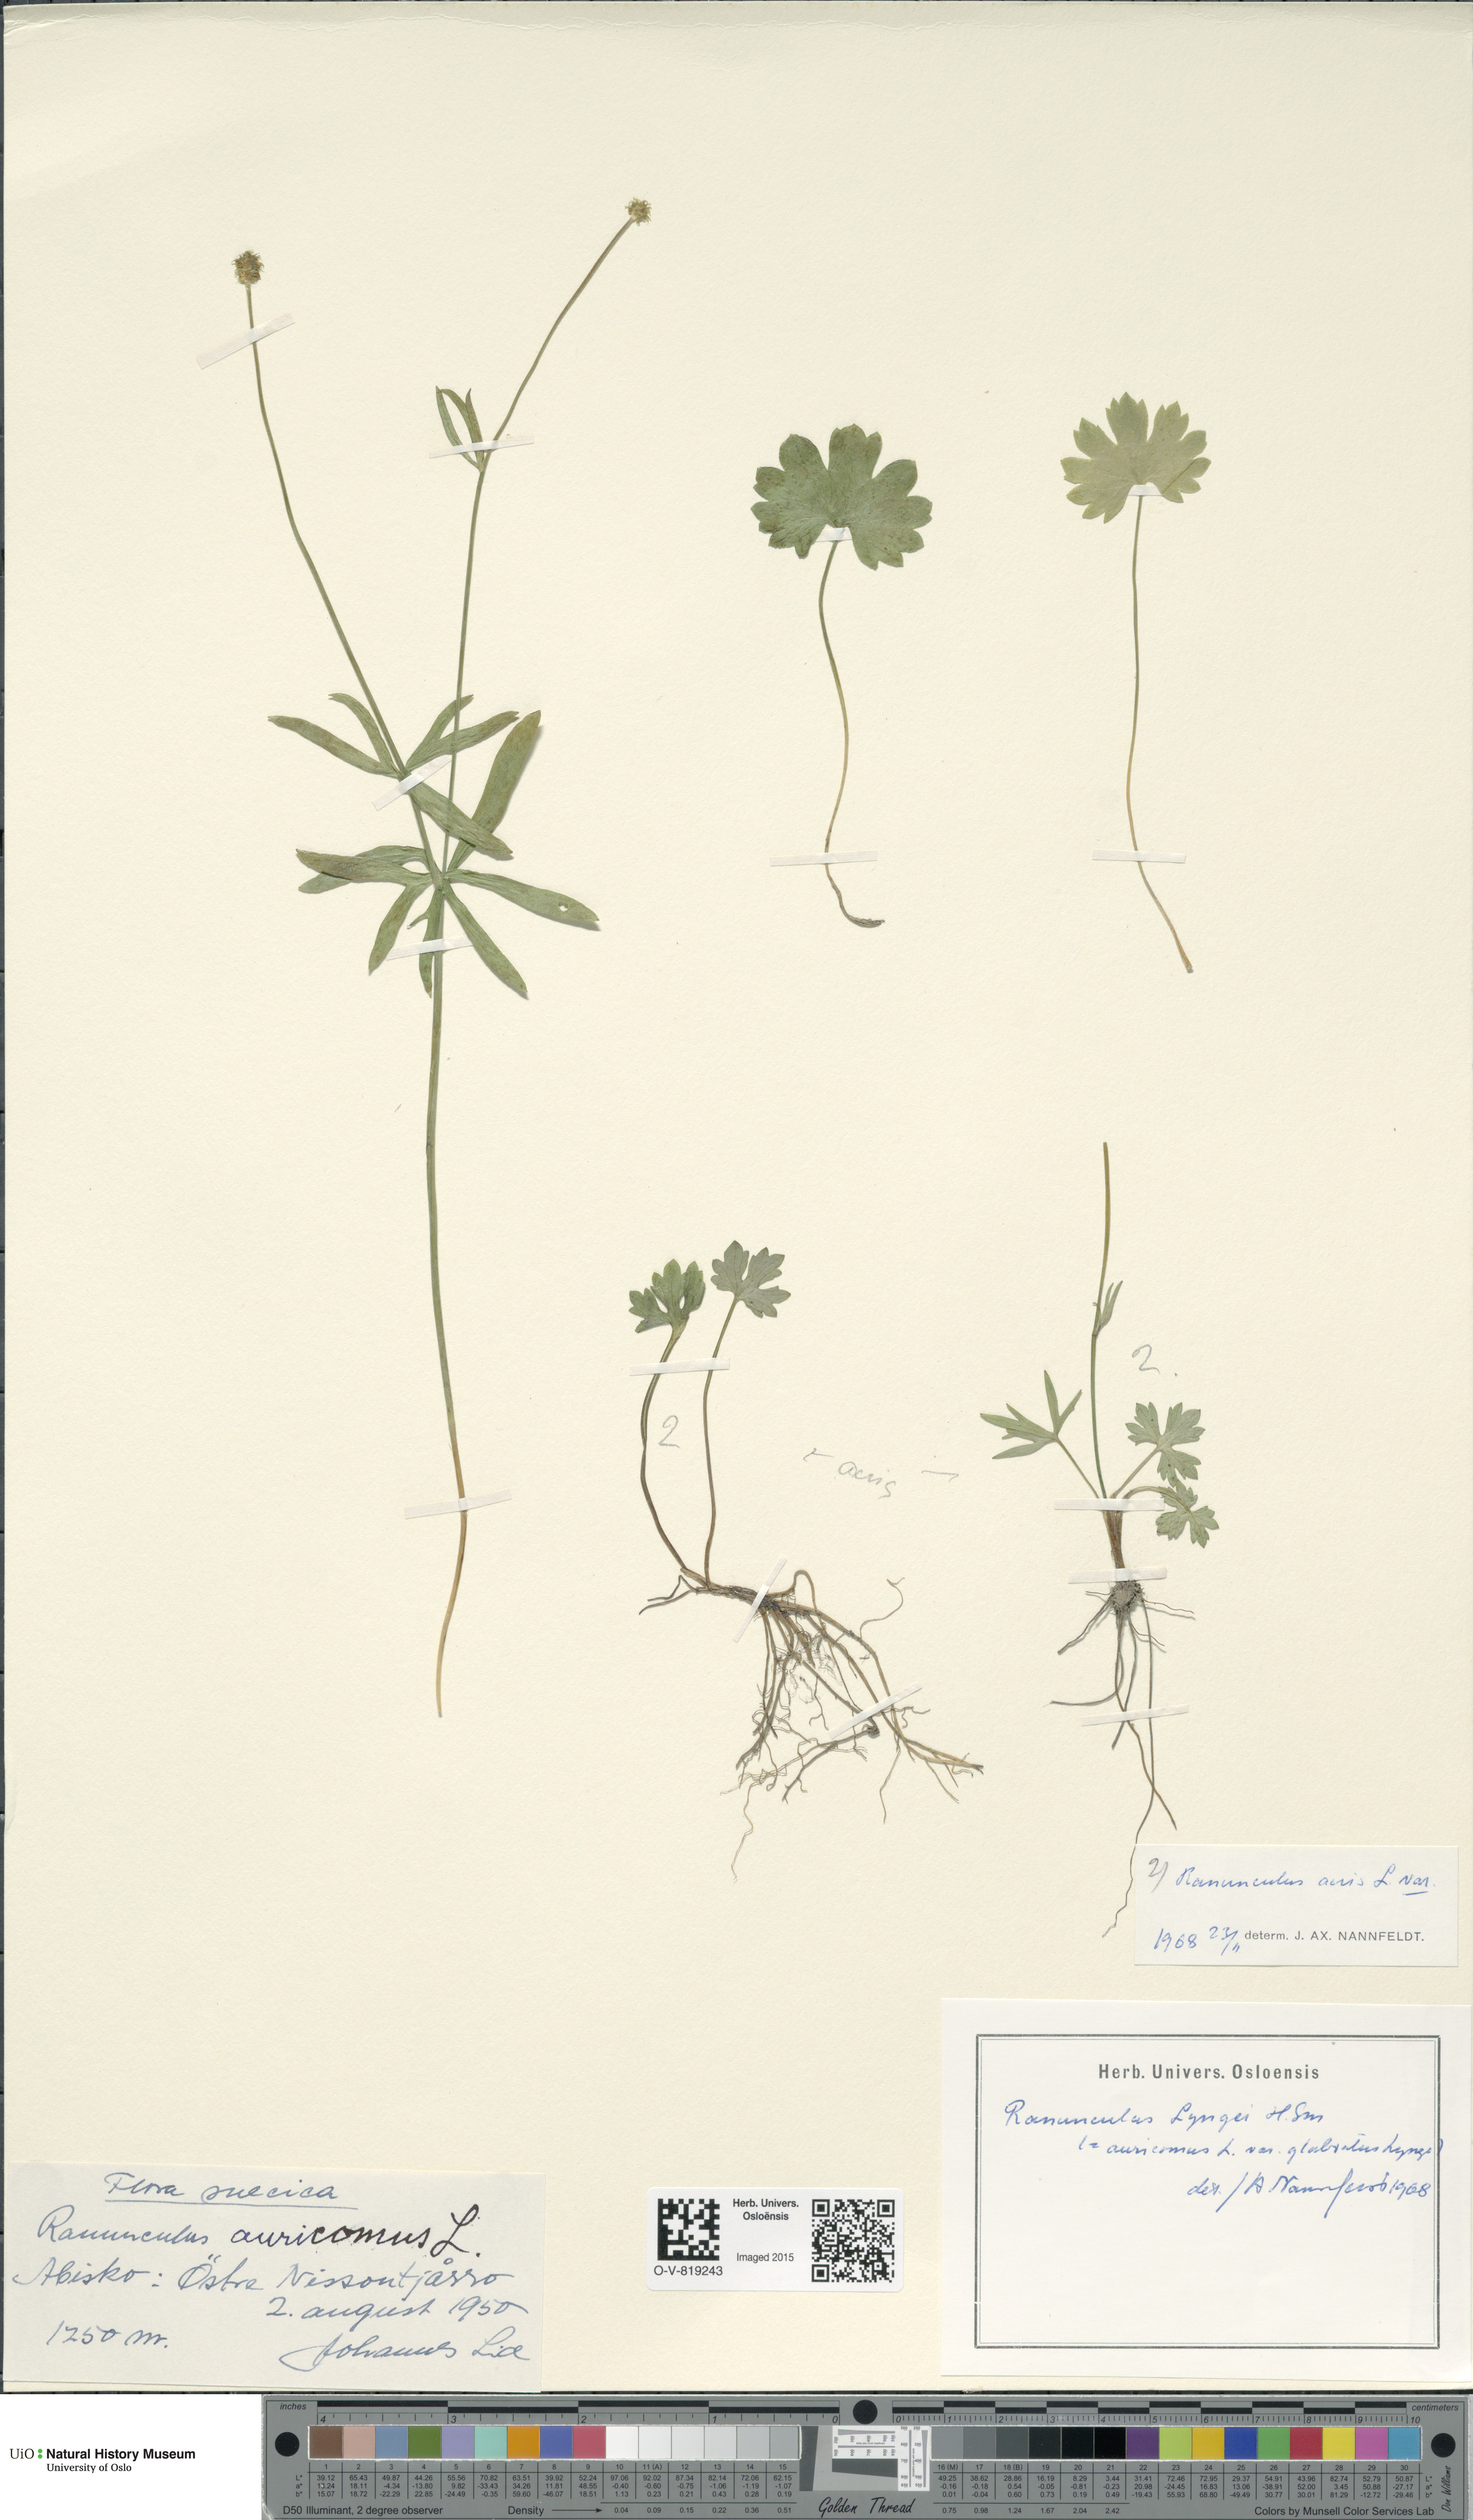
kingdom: Plantae
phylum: Tracheophyta
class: Magnoliopsida
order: Ranunculales
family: Ranunculaceae
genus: Ranunculus
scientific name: Ranunculus auricomus
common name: Goldilocks buttercup
